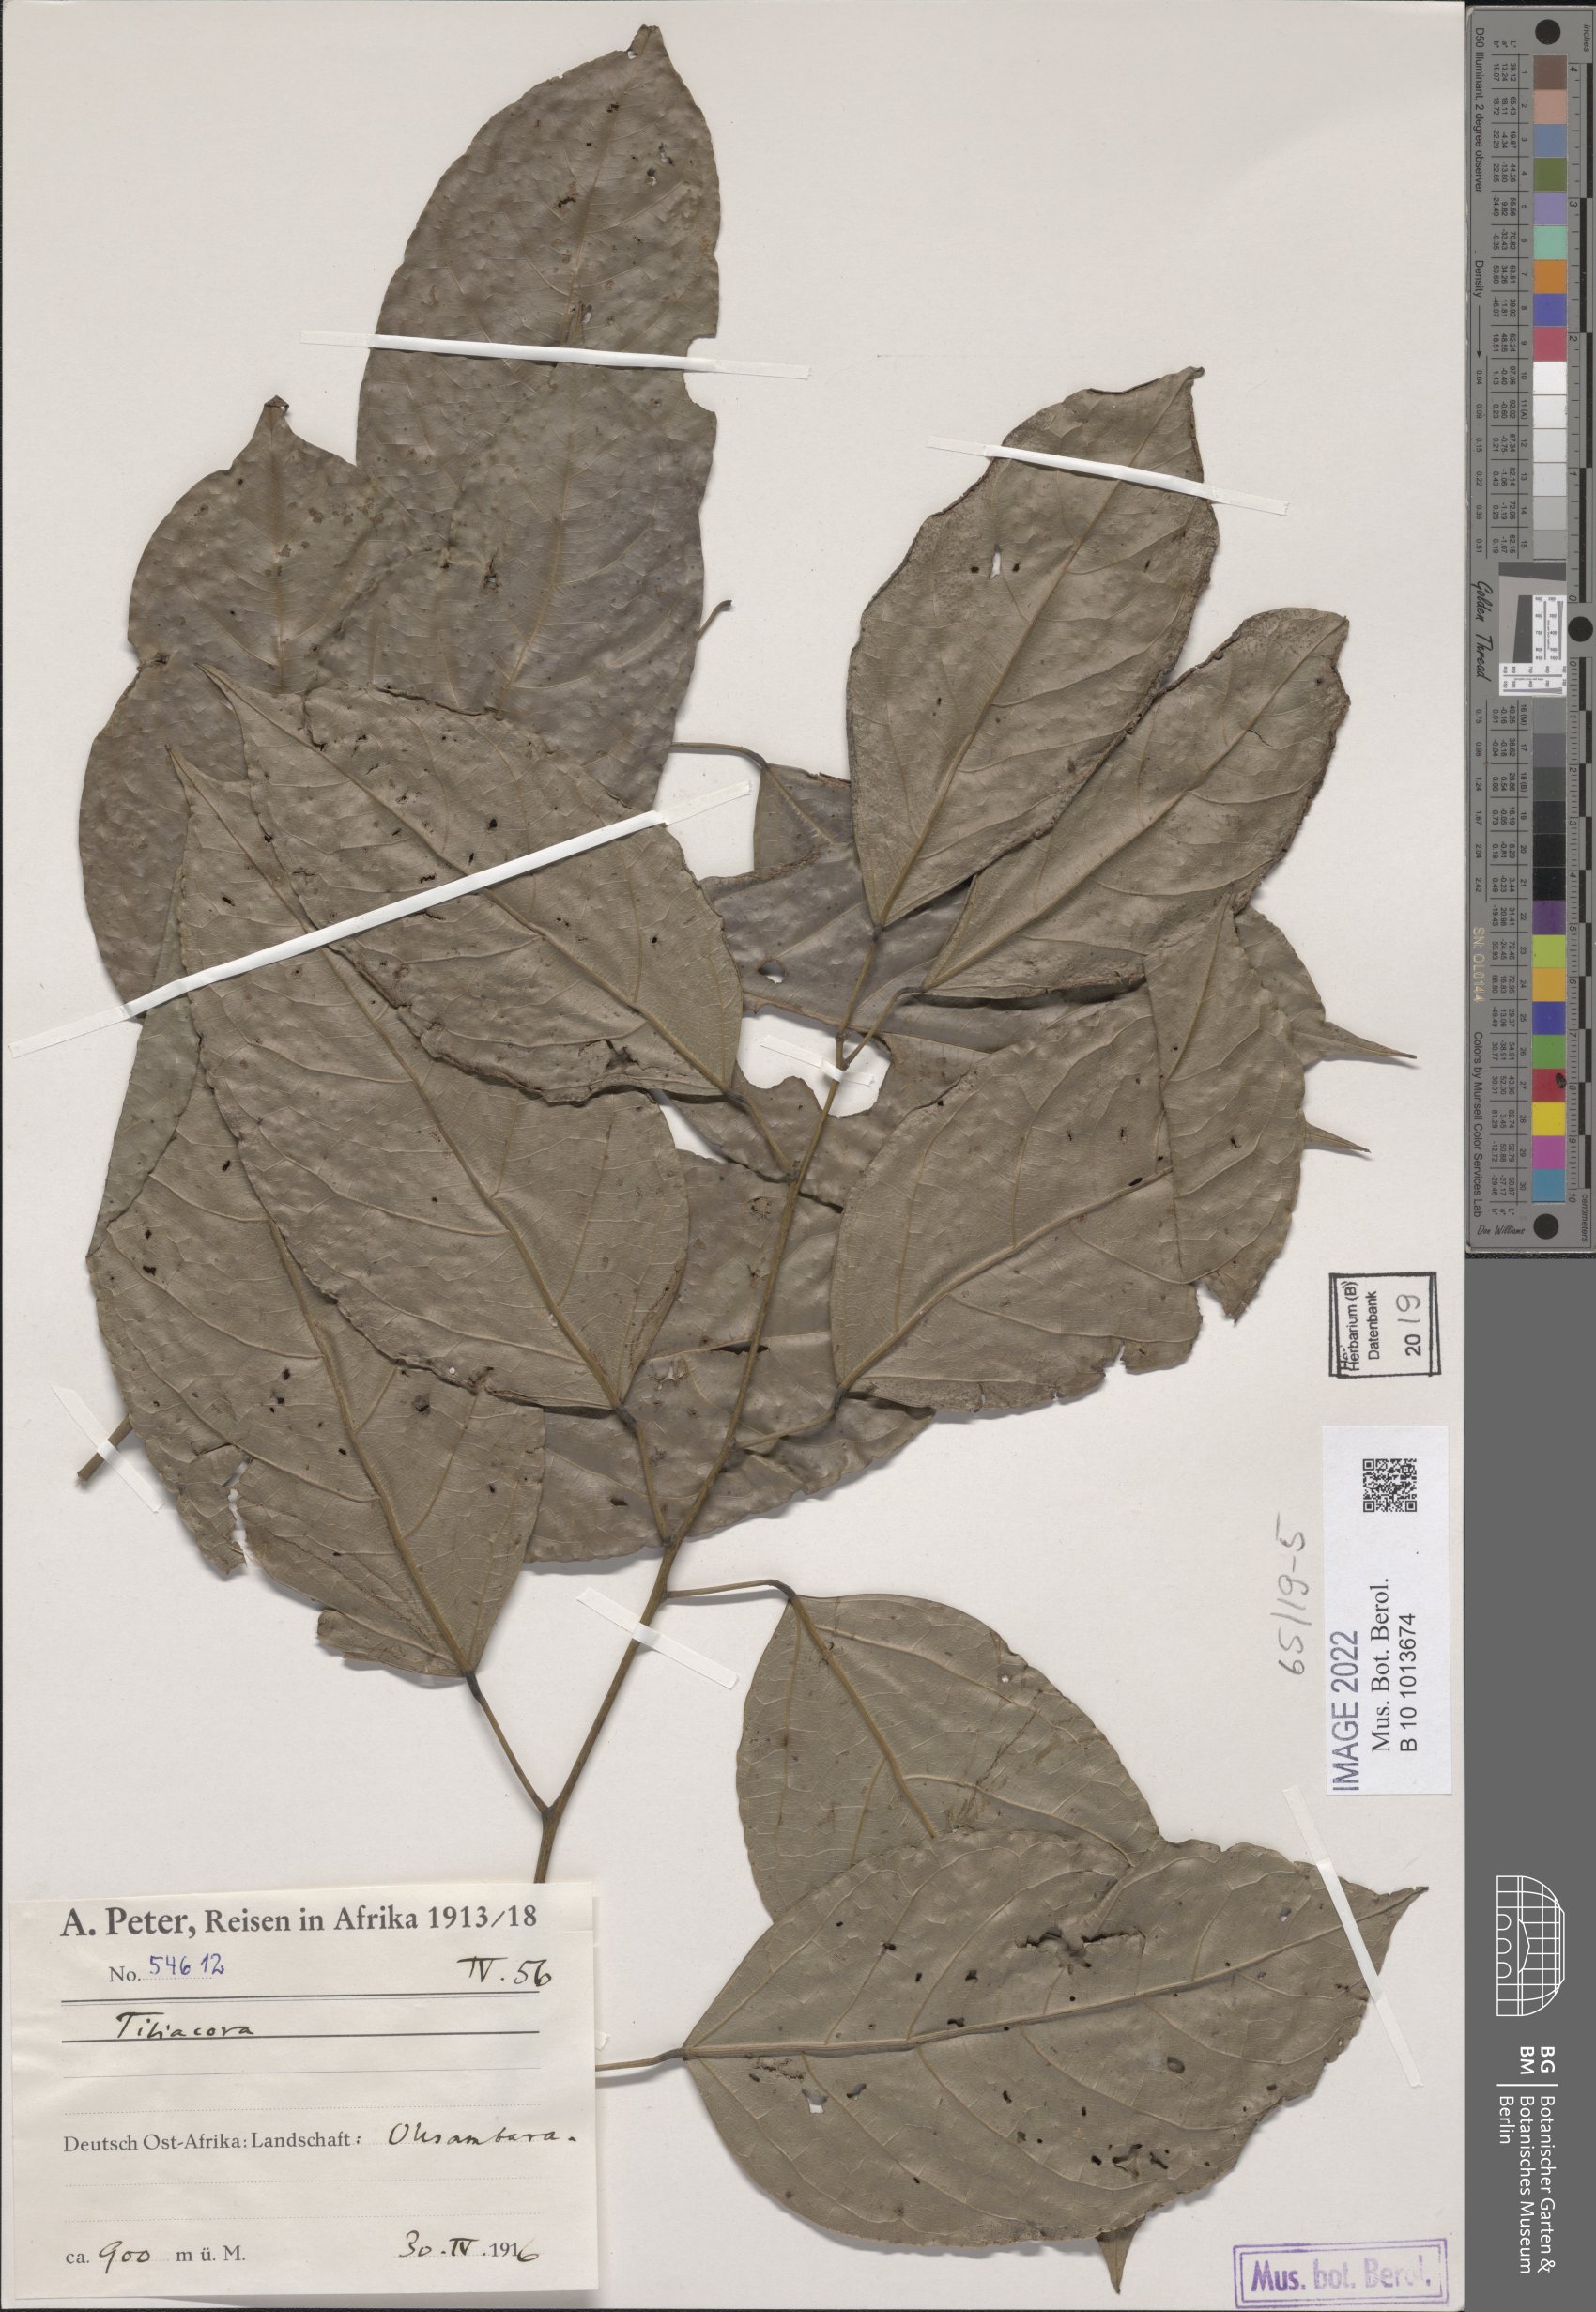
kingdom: Plantae
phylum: Tracheophyta
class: Magnoliopsida
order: Ranunculales
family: Menispermaceae
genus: Tiliacora
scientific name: Tiliacora
